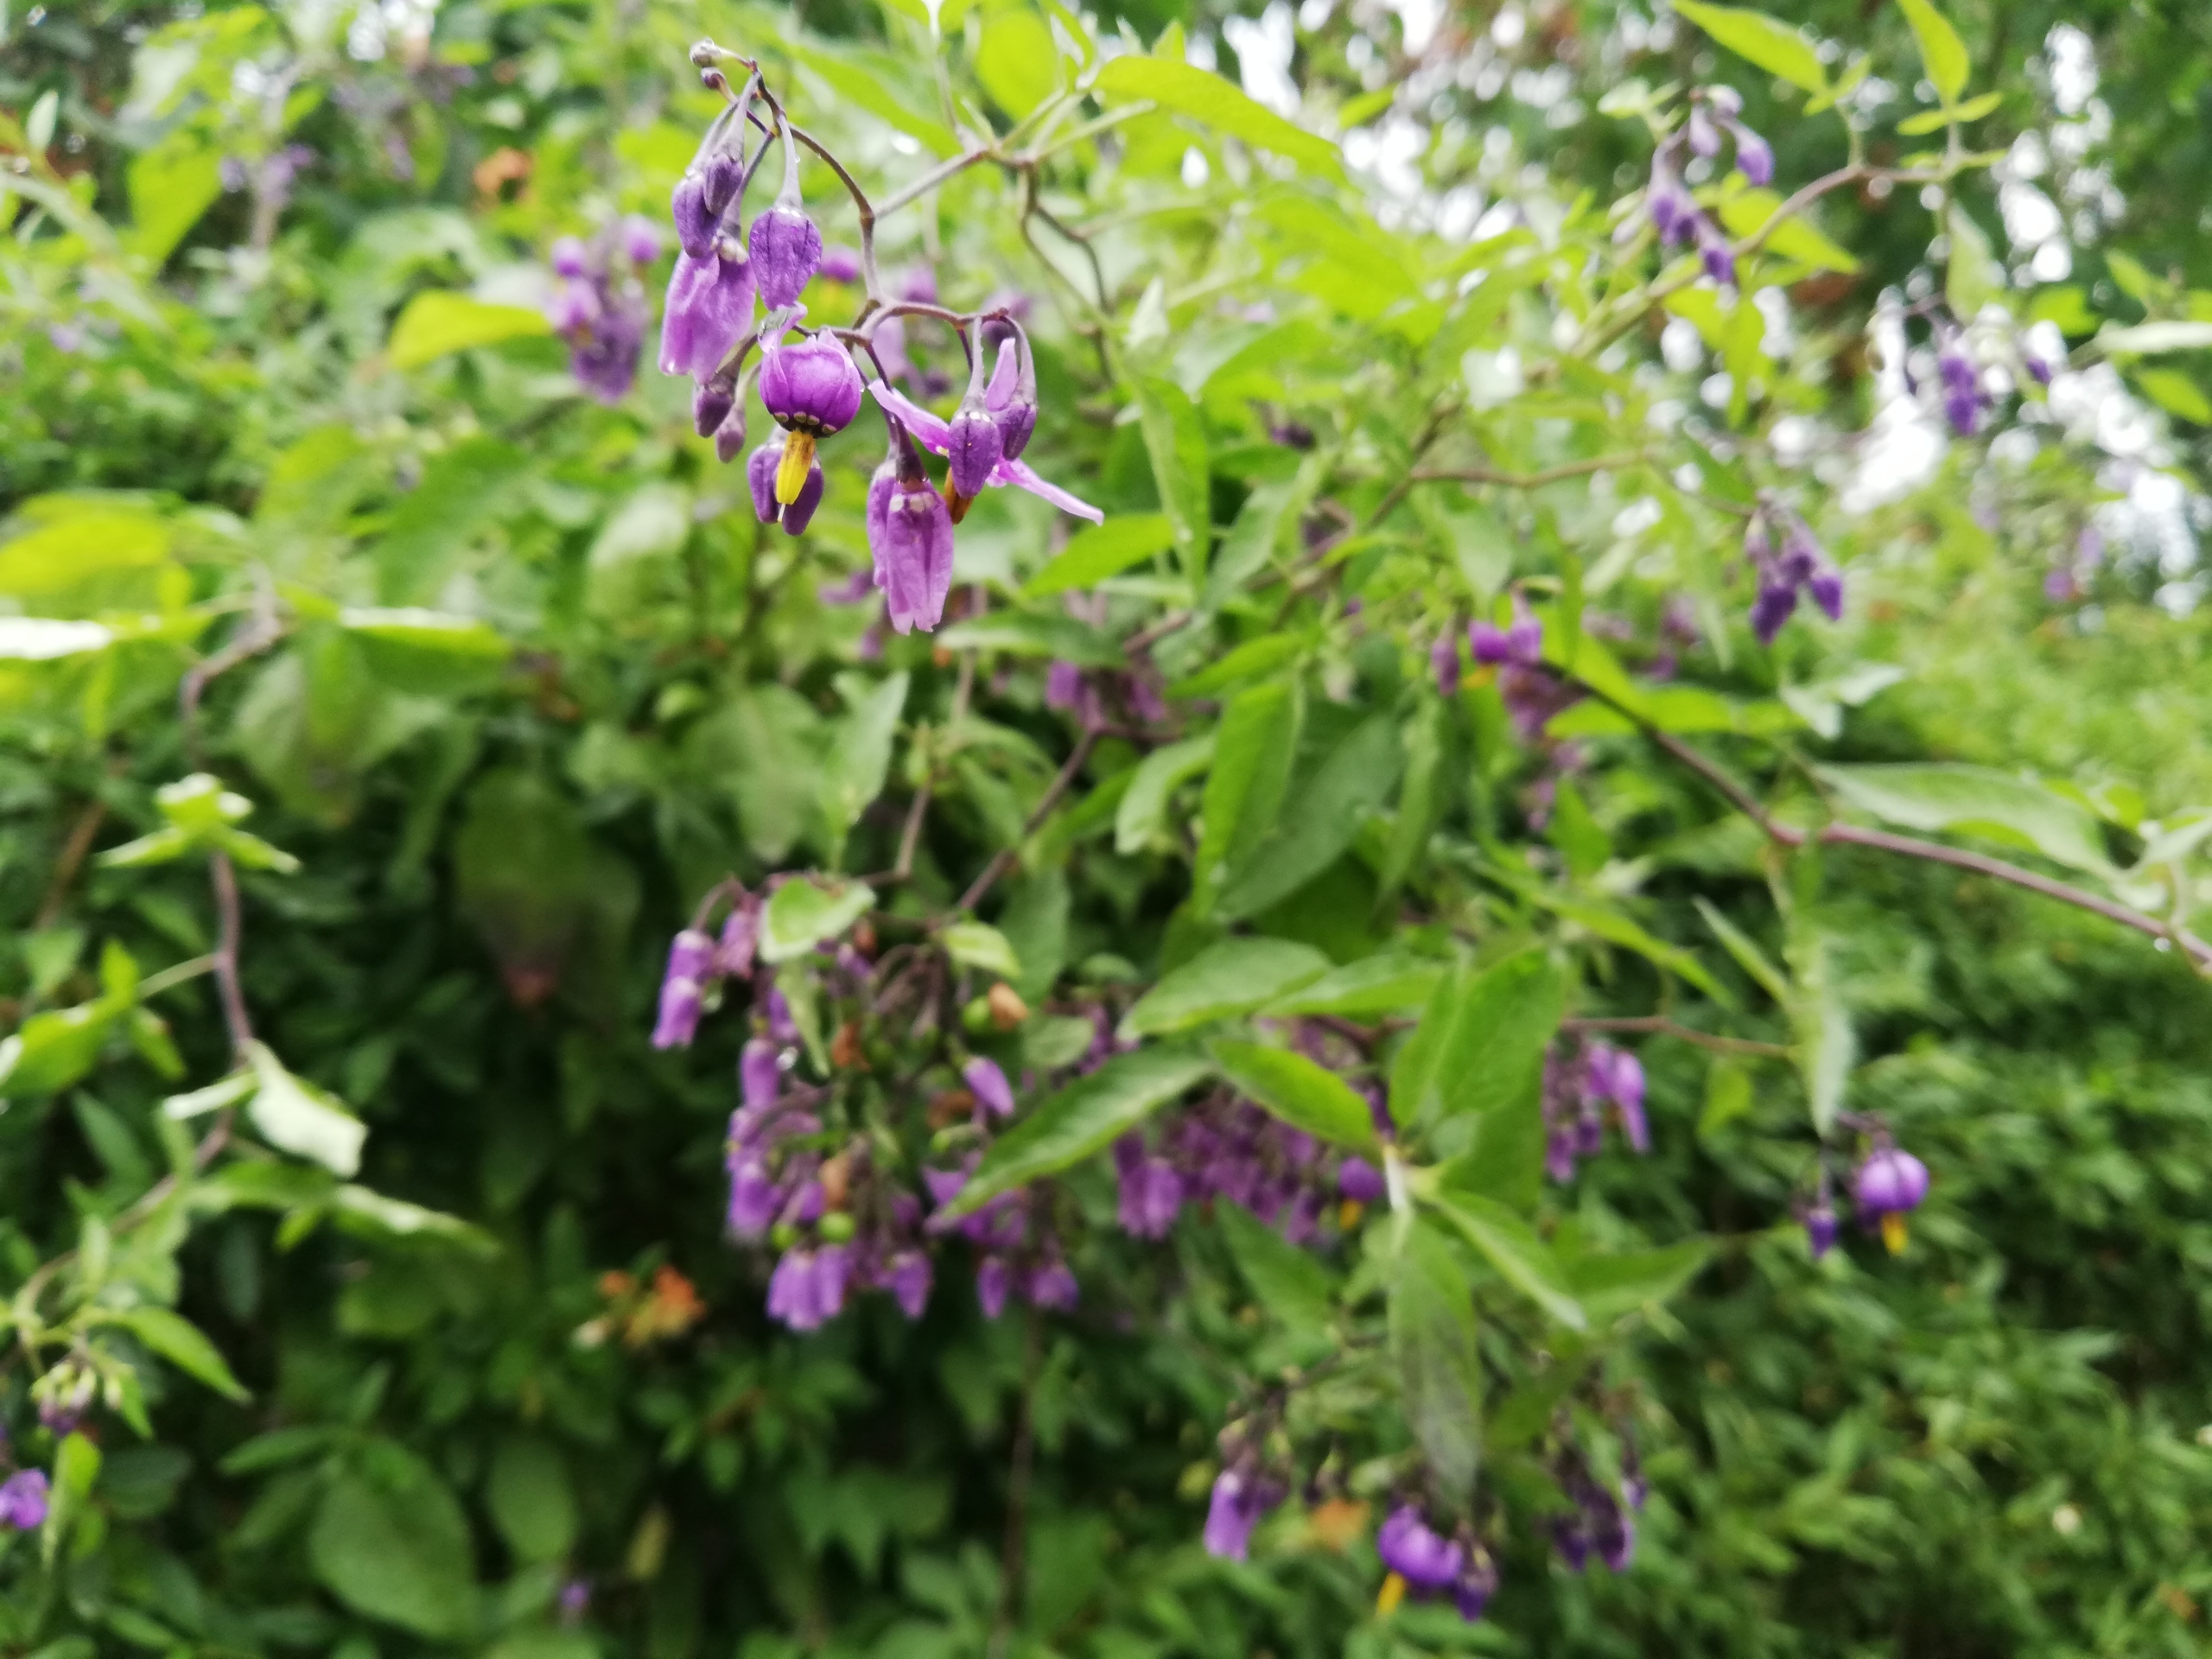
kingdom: Plantae
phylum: Tracheophyta
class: Magnoliopsida
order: Solanales
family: Solanaceae
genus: Solanum
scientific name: Solanum dulcamara
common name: Bittersød natskygge
